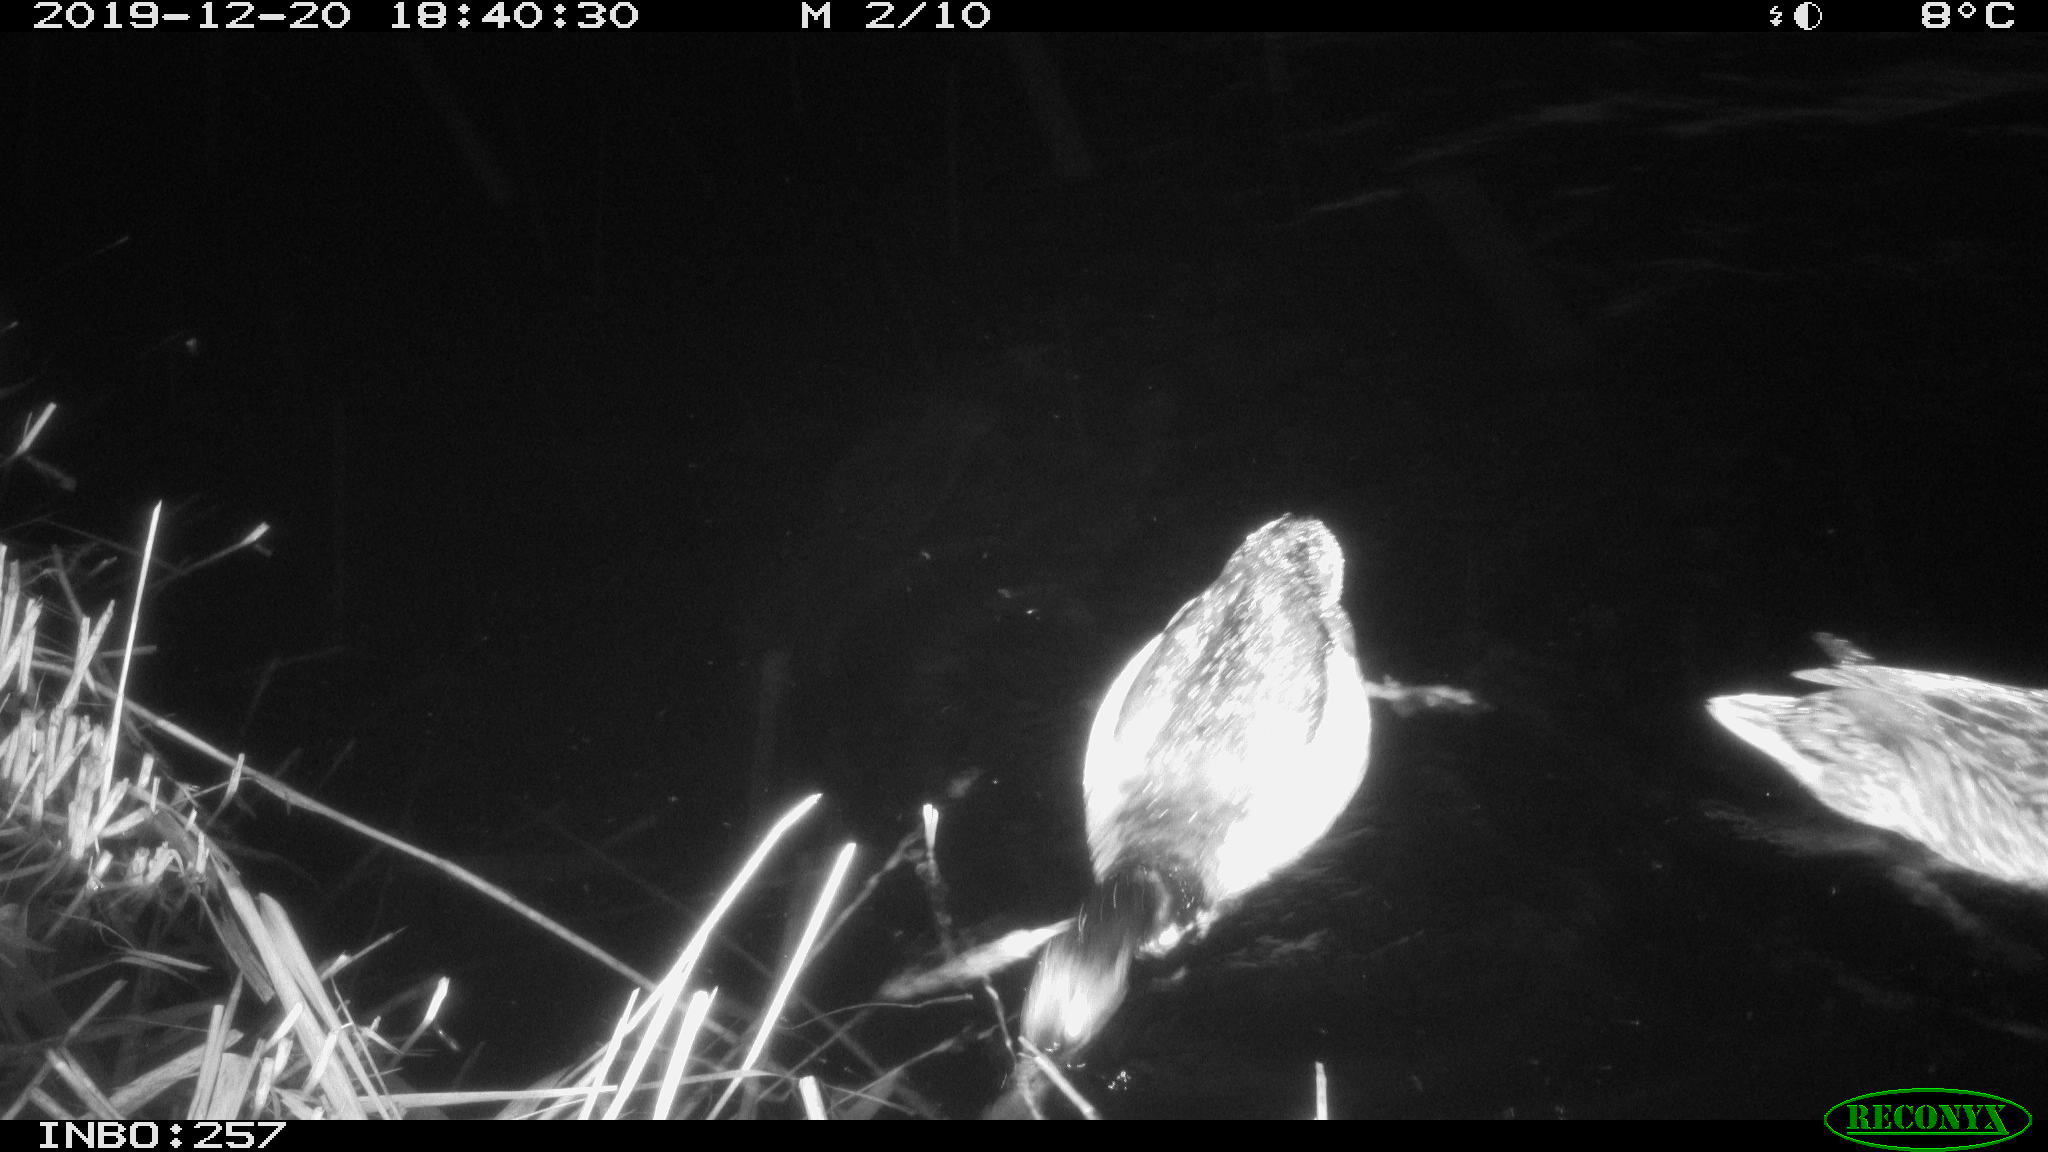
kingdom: Animalia
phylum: Chordata
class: Aves
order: Anseriformes
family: Anatidae
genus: Anas
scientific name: Anas platyrhynchos
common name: Mallard
